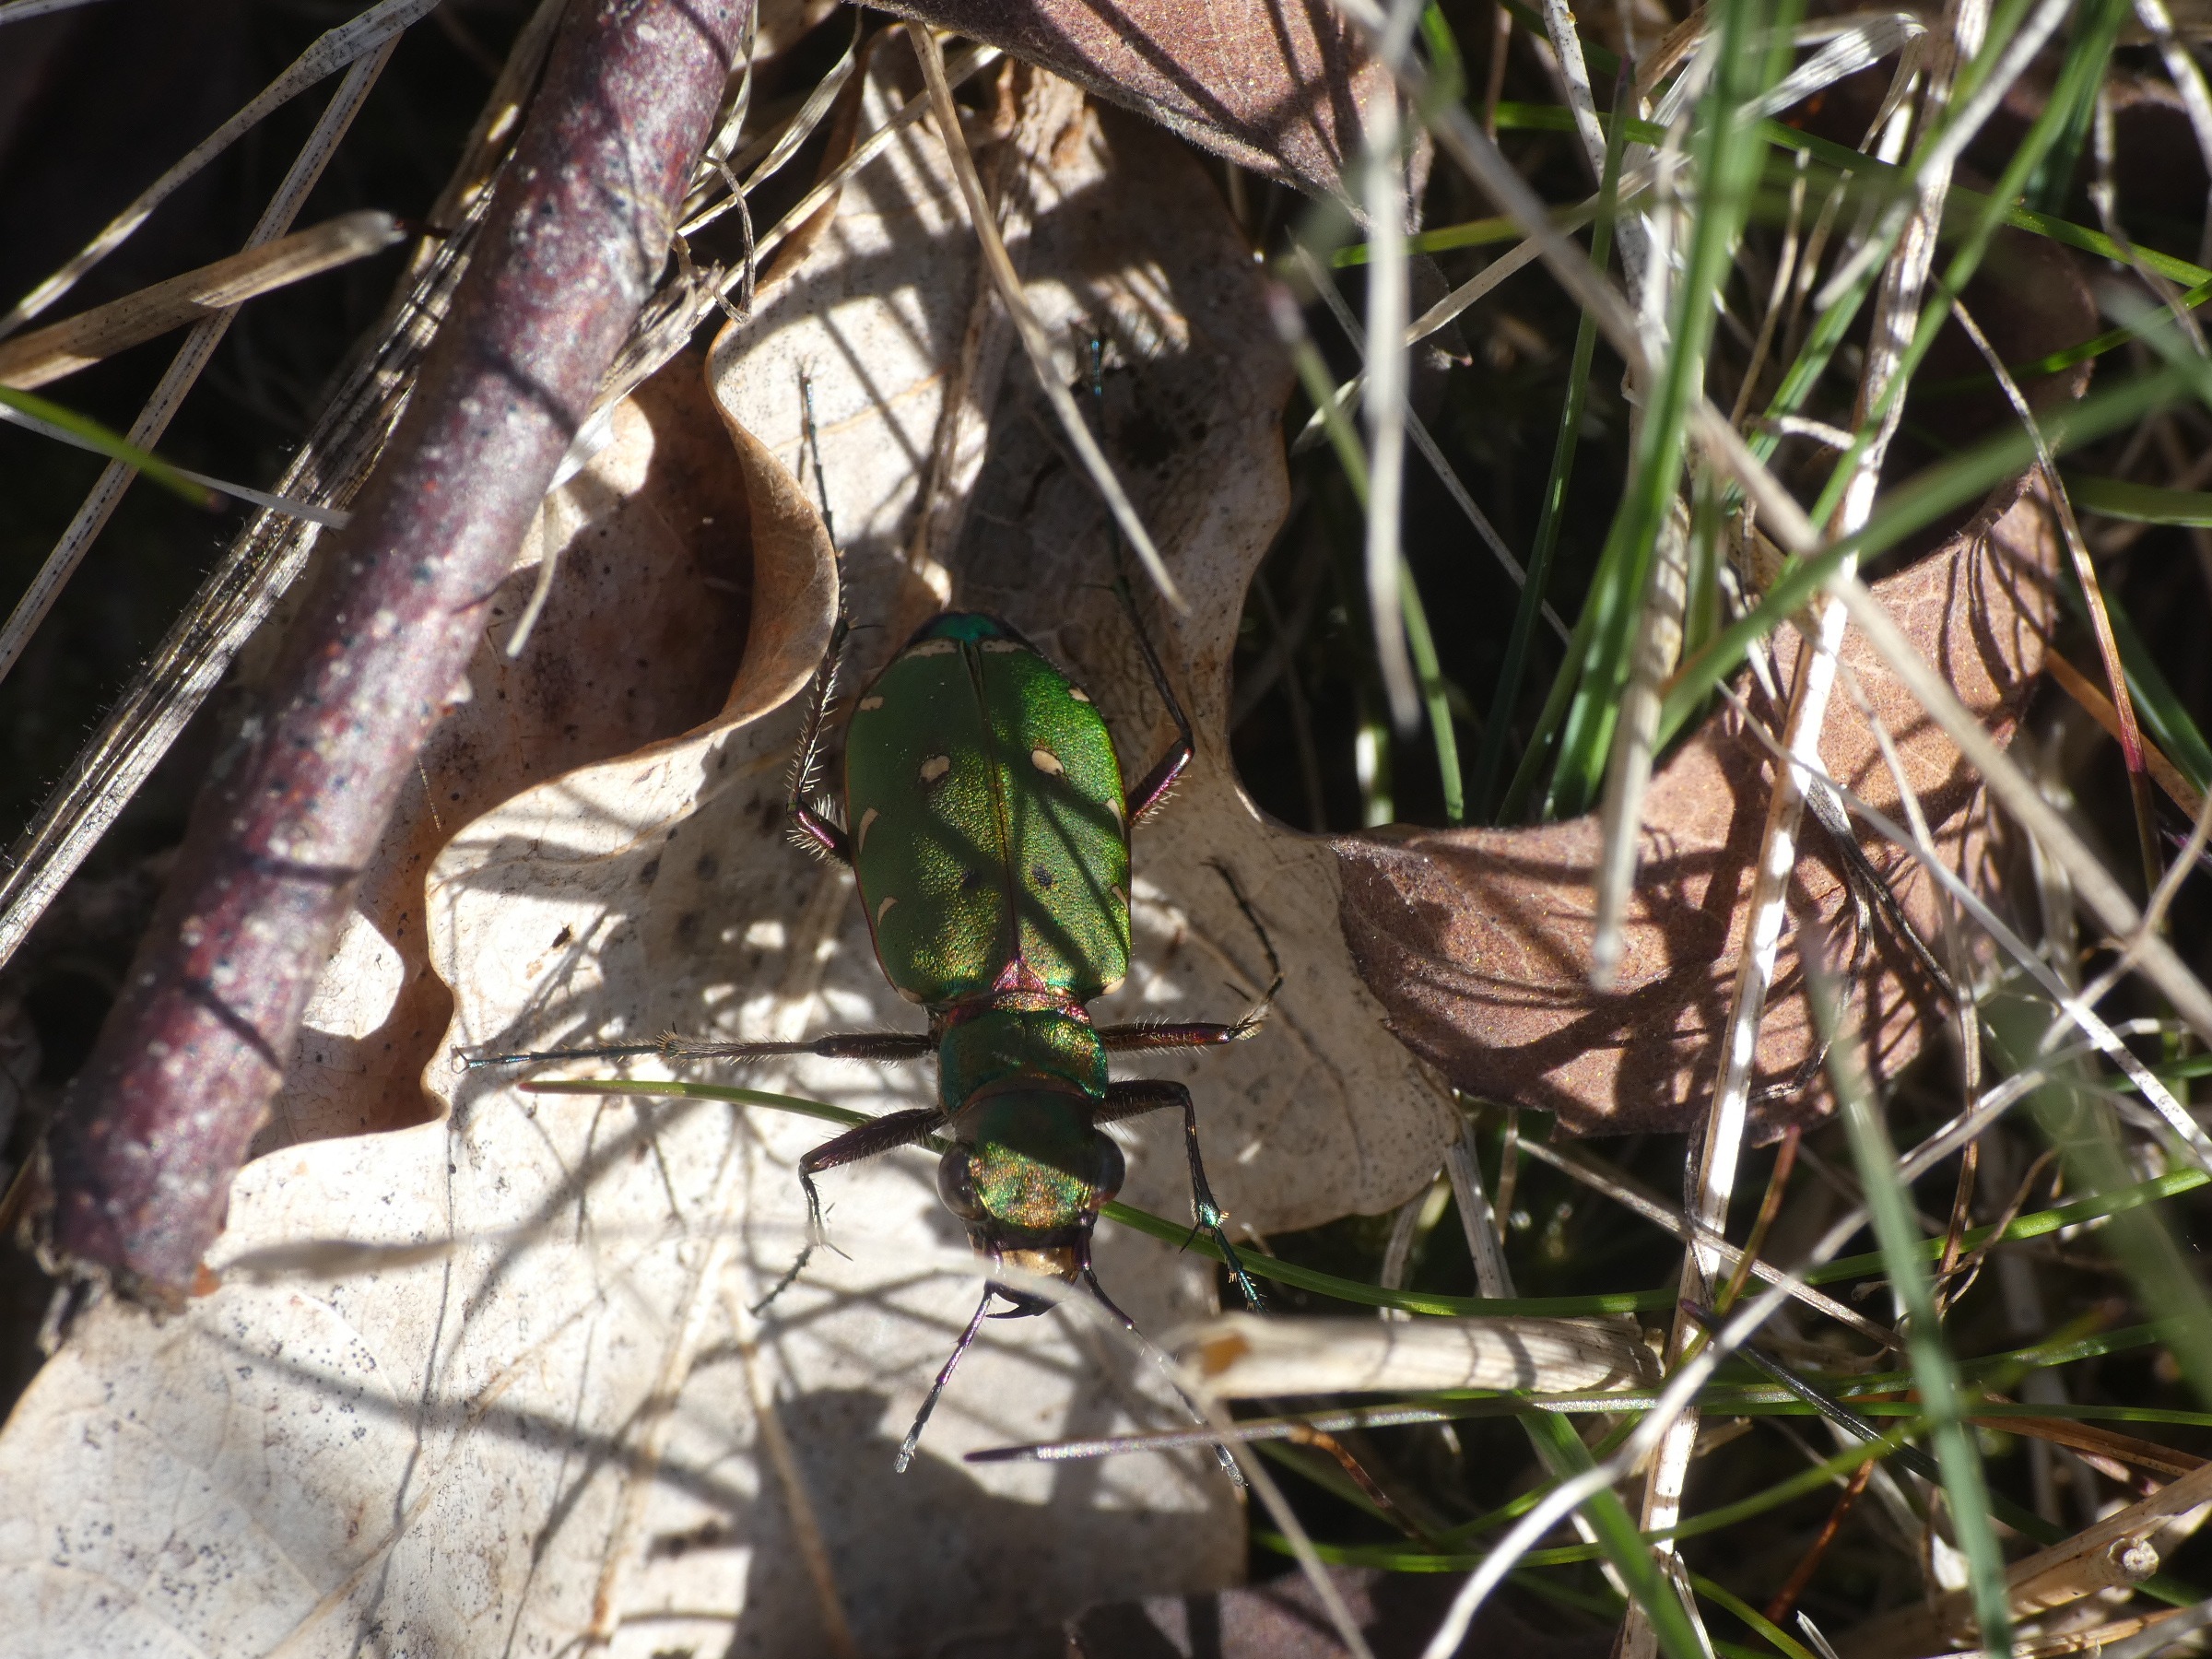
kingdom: Animalia
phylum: Arthropoda
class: Insecta
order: Coleoptera
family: Carabidae
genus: Cicindela
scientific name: Cicindela campestris
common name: Grøn sandspringer
